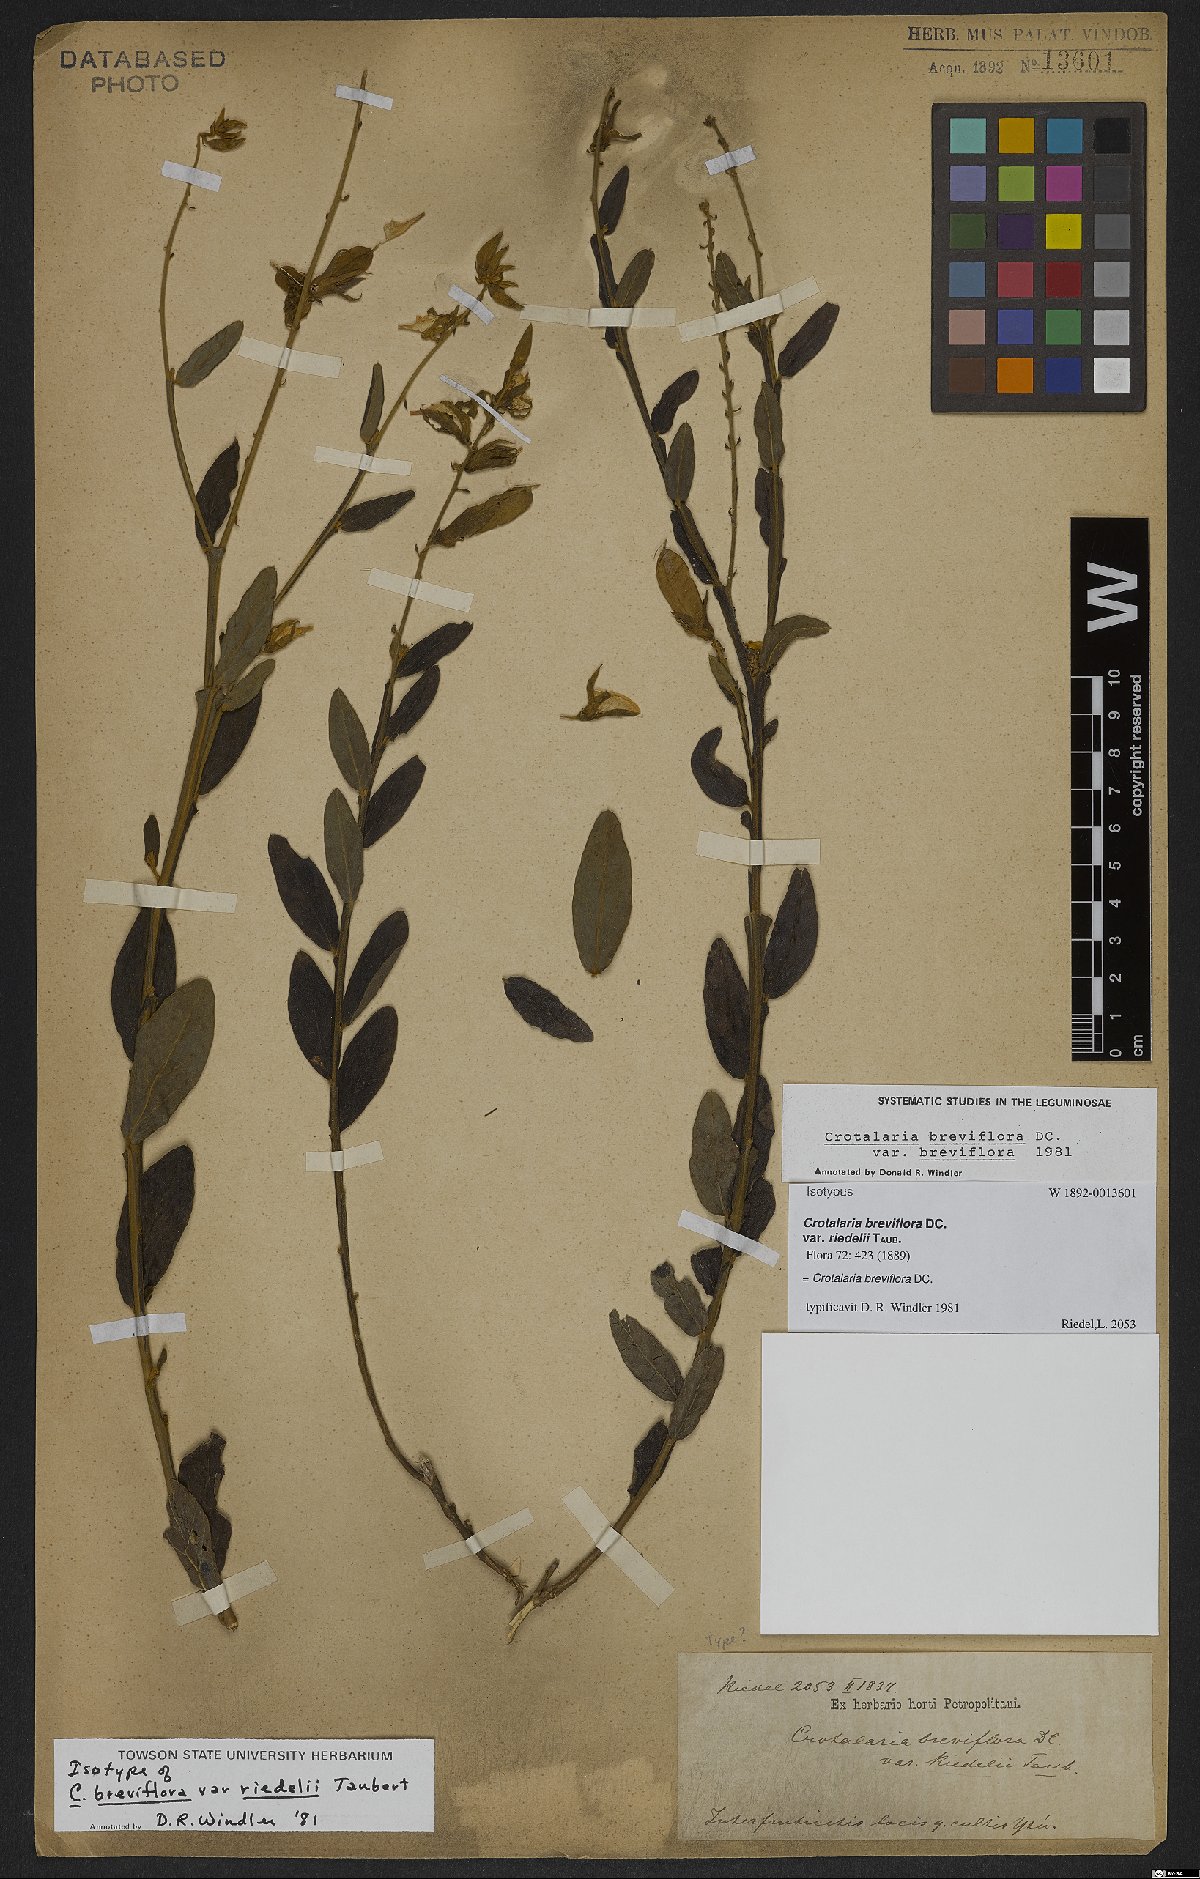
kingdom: Plantae
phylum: Tracheophyta
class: Magnoliopsida
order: Fabales
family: Fabaceae
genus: Crotalaria
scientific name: Crotalaria breviflora
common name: Short-flower crotalaria
